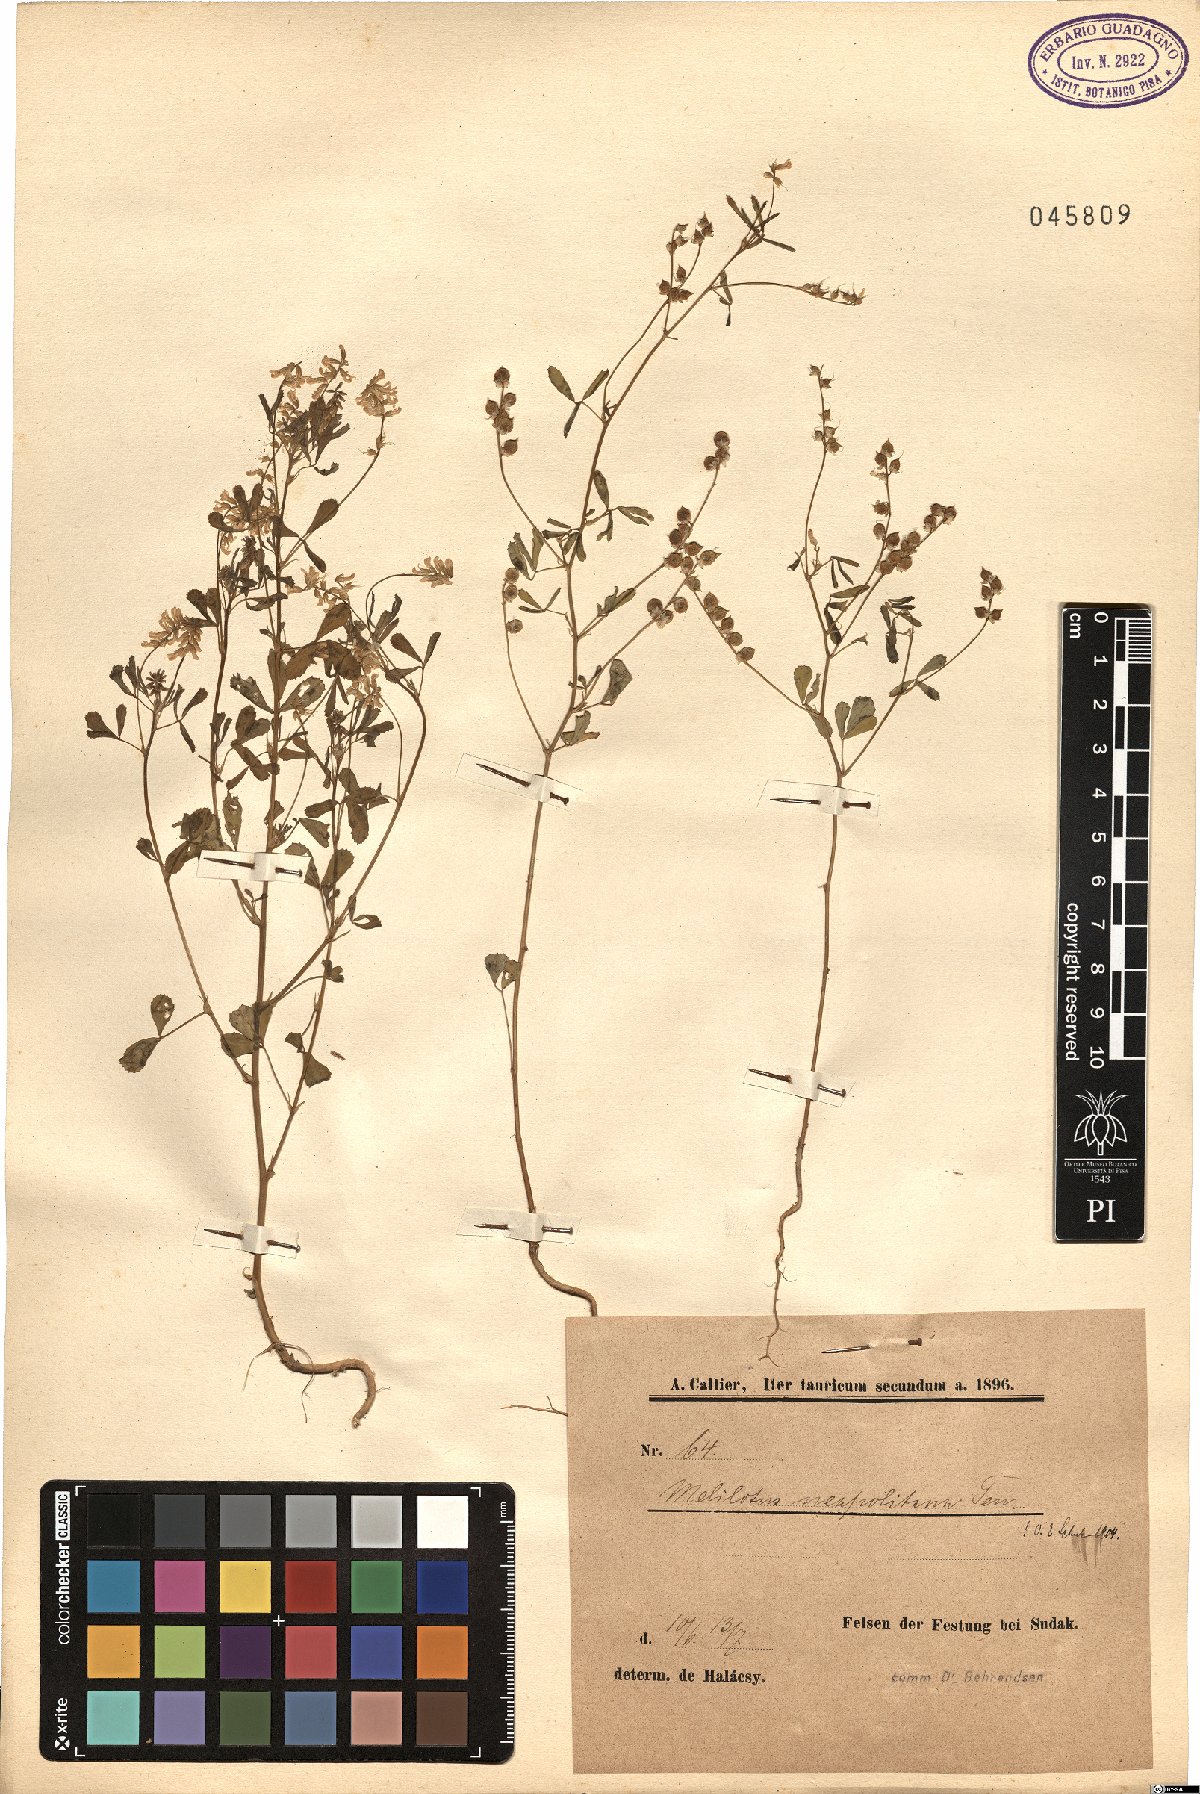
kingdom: Plantae
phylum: Tracheophyta
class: Magnoliopsida
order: Fabales
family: Fabaceae
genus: Melilotus
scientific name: Melilotus neapolitanus
